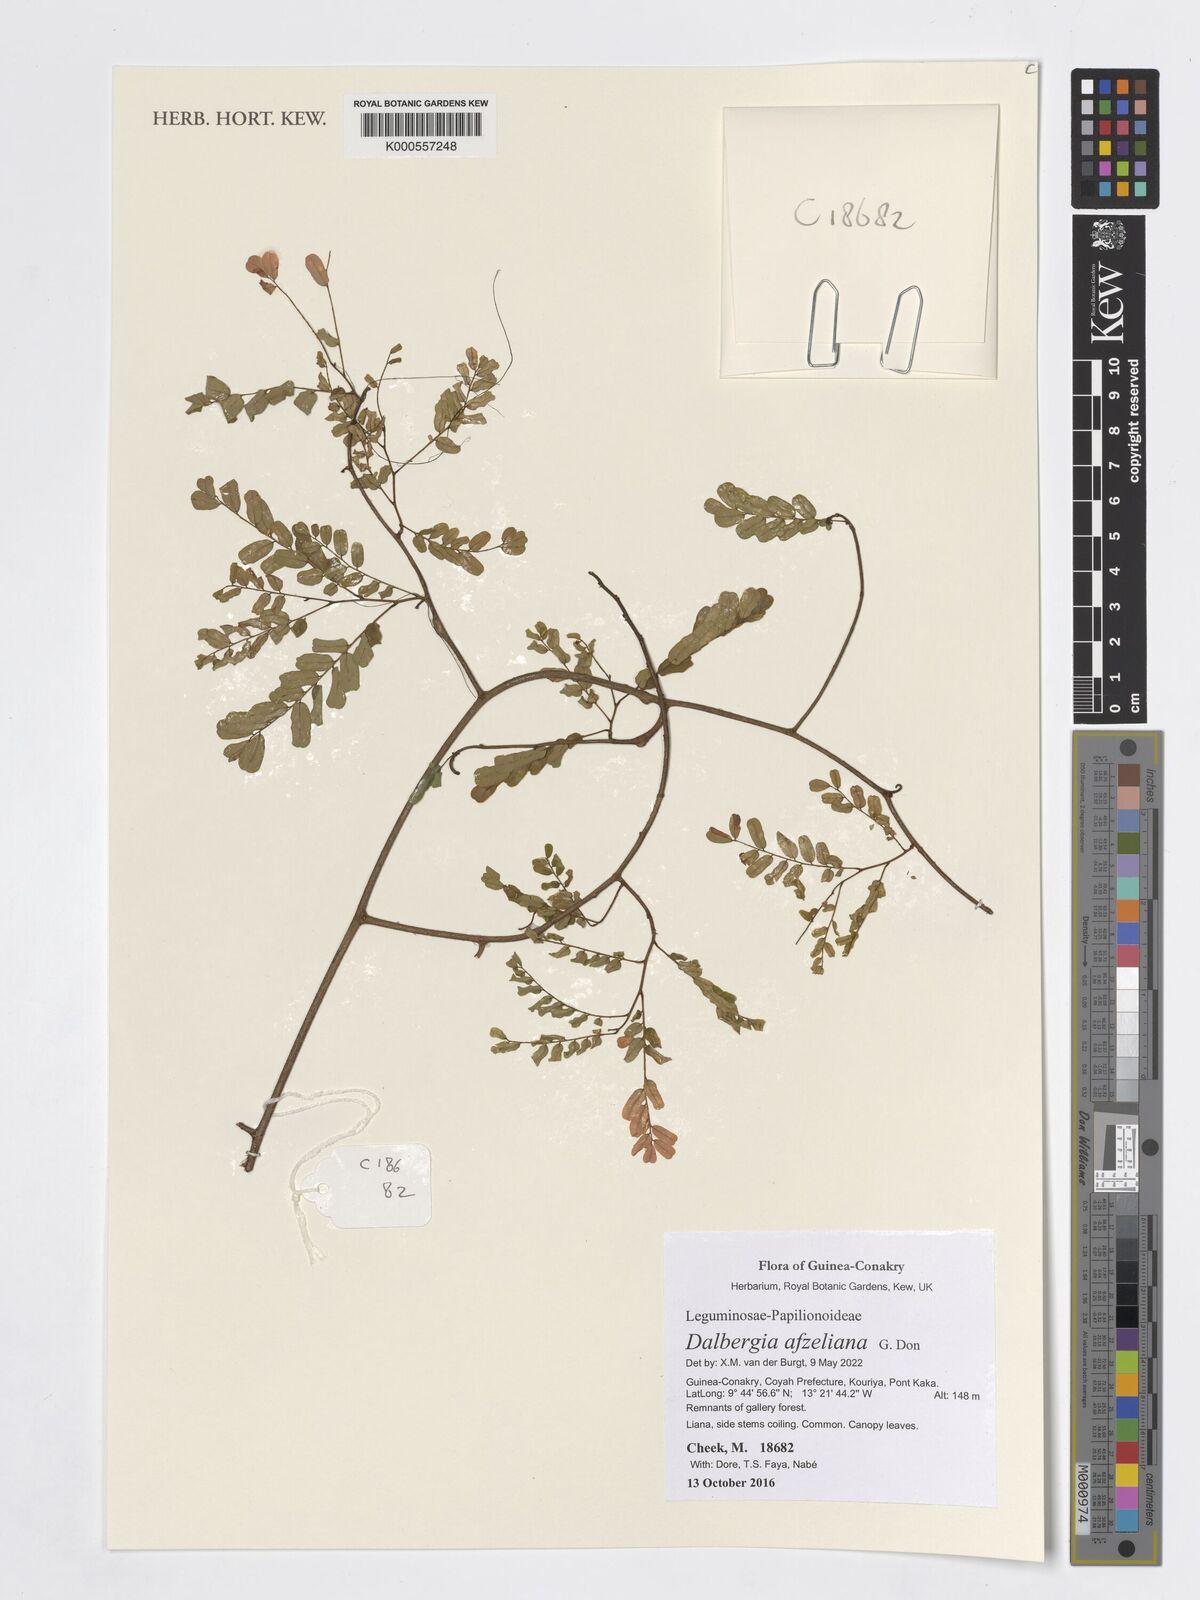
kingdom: Plantae
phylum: Tracheophyta
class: Magnoliopsida
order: Fabales
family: Fabaceae
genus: Dalbergia
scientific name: Dalbergia afzeliana
